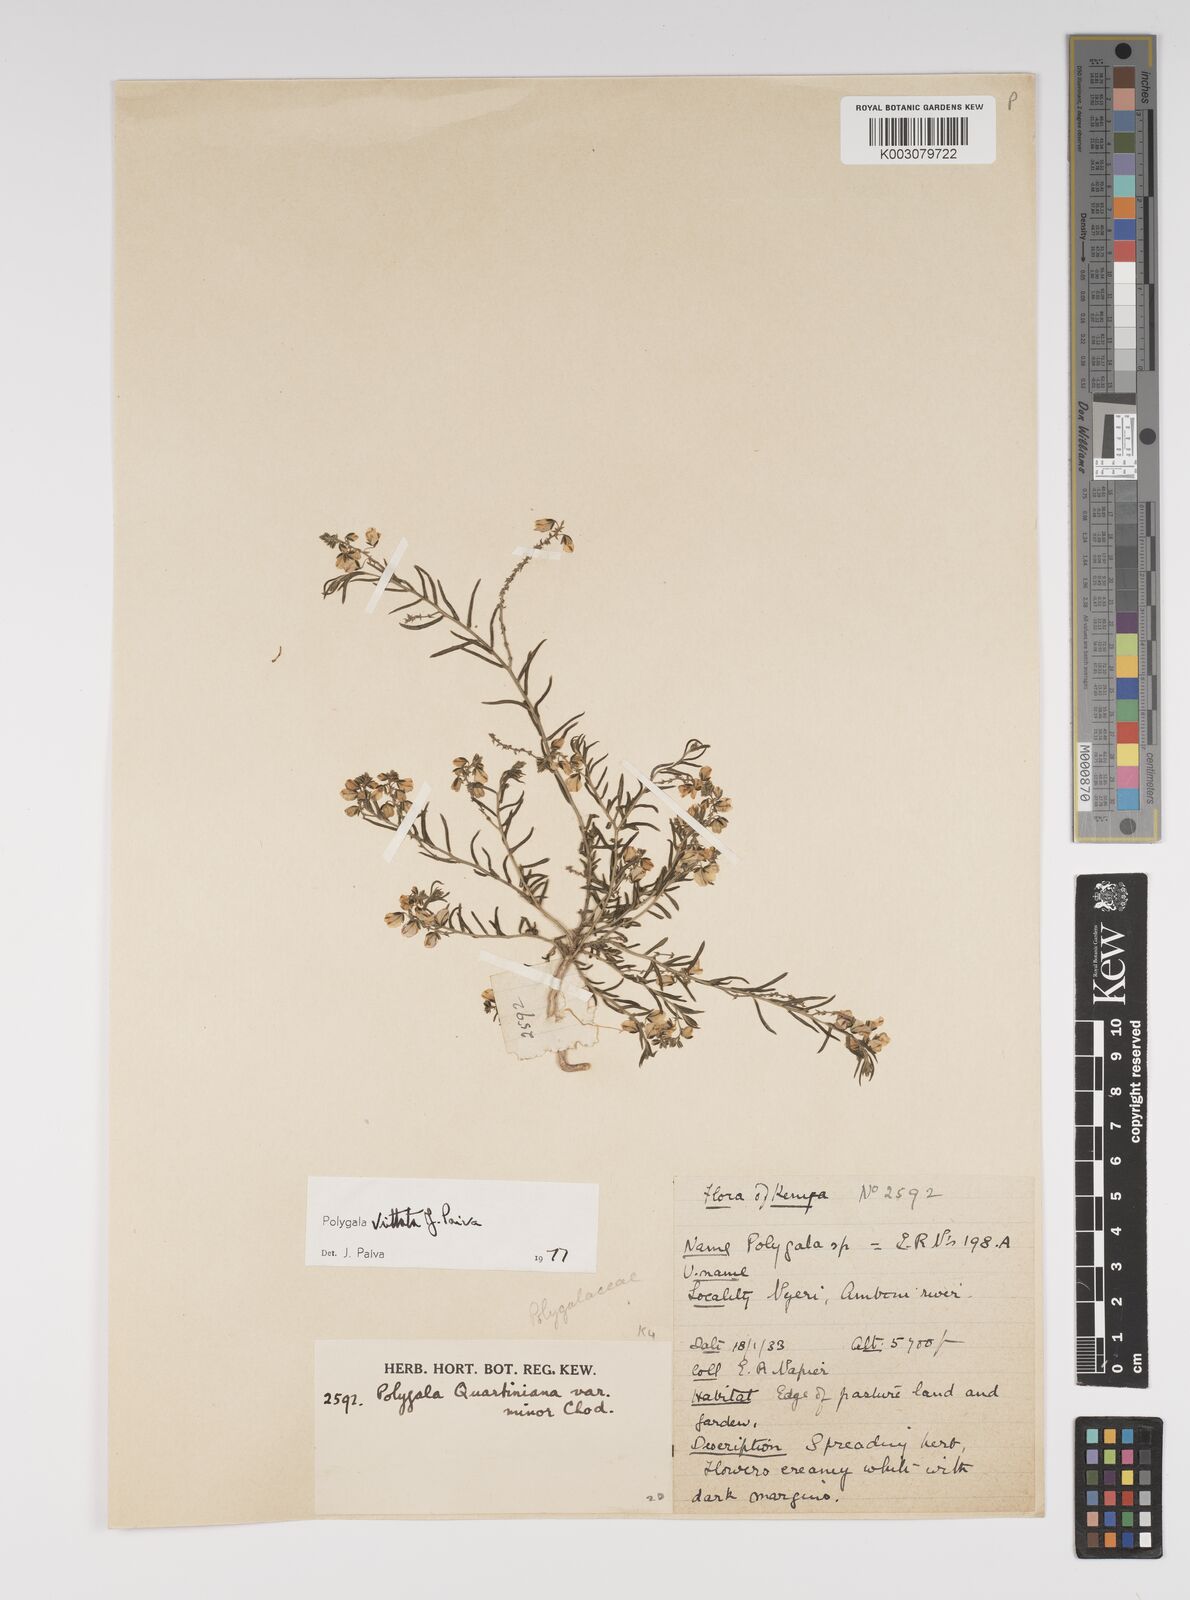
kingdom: Plantae
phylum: Tracheophyta
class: Magnoliopsida
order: Fabales
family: Polygalaceae
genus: Polygala
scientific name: Polygala vittata
